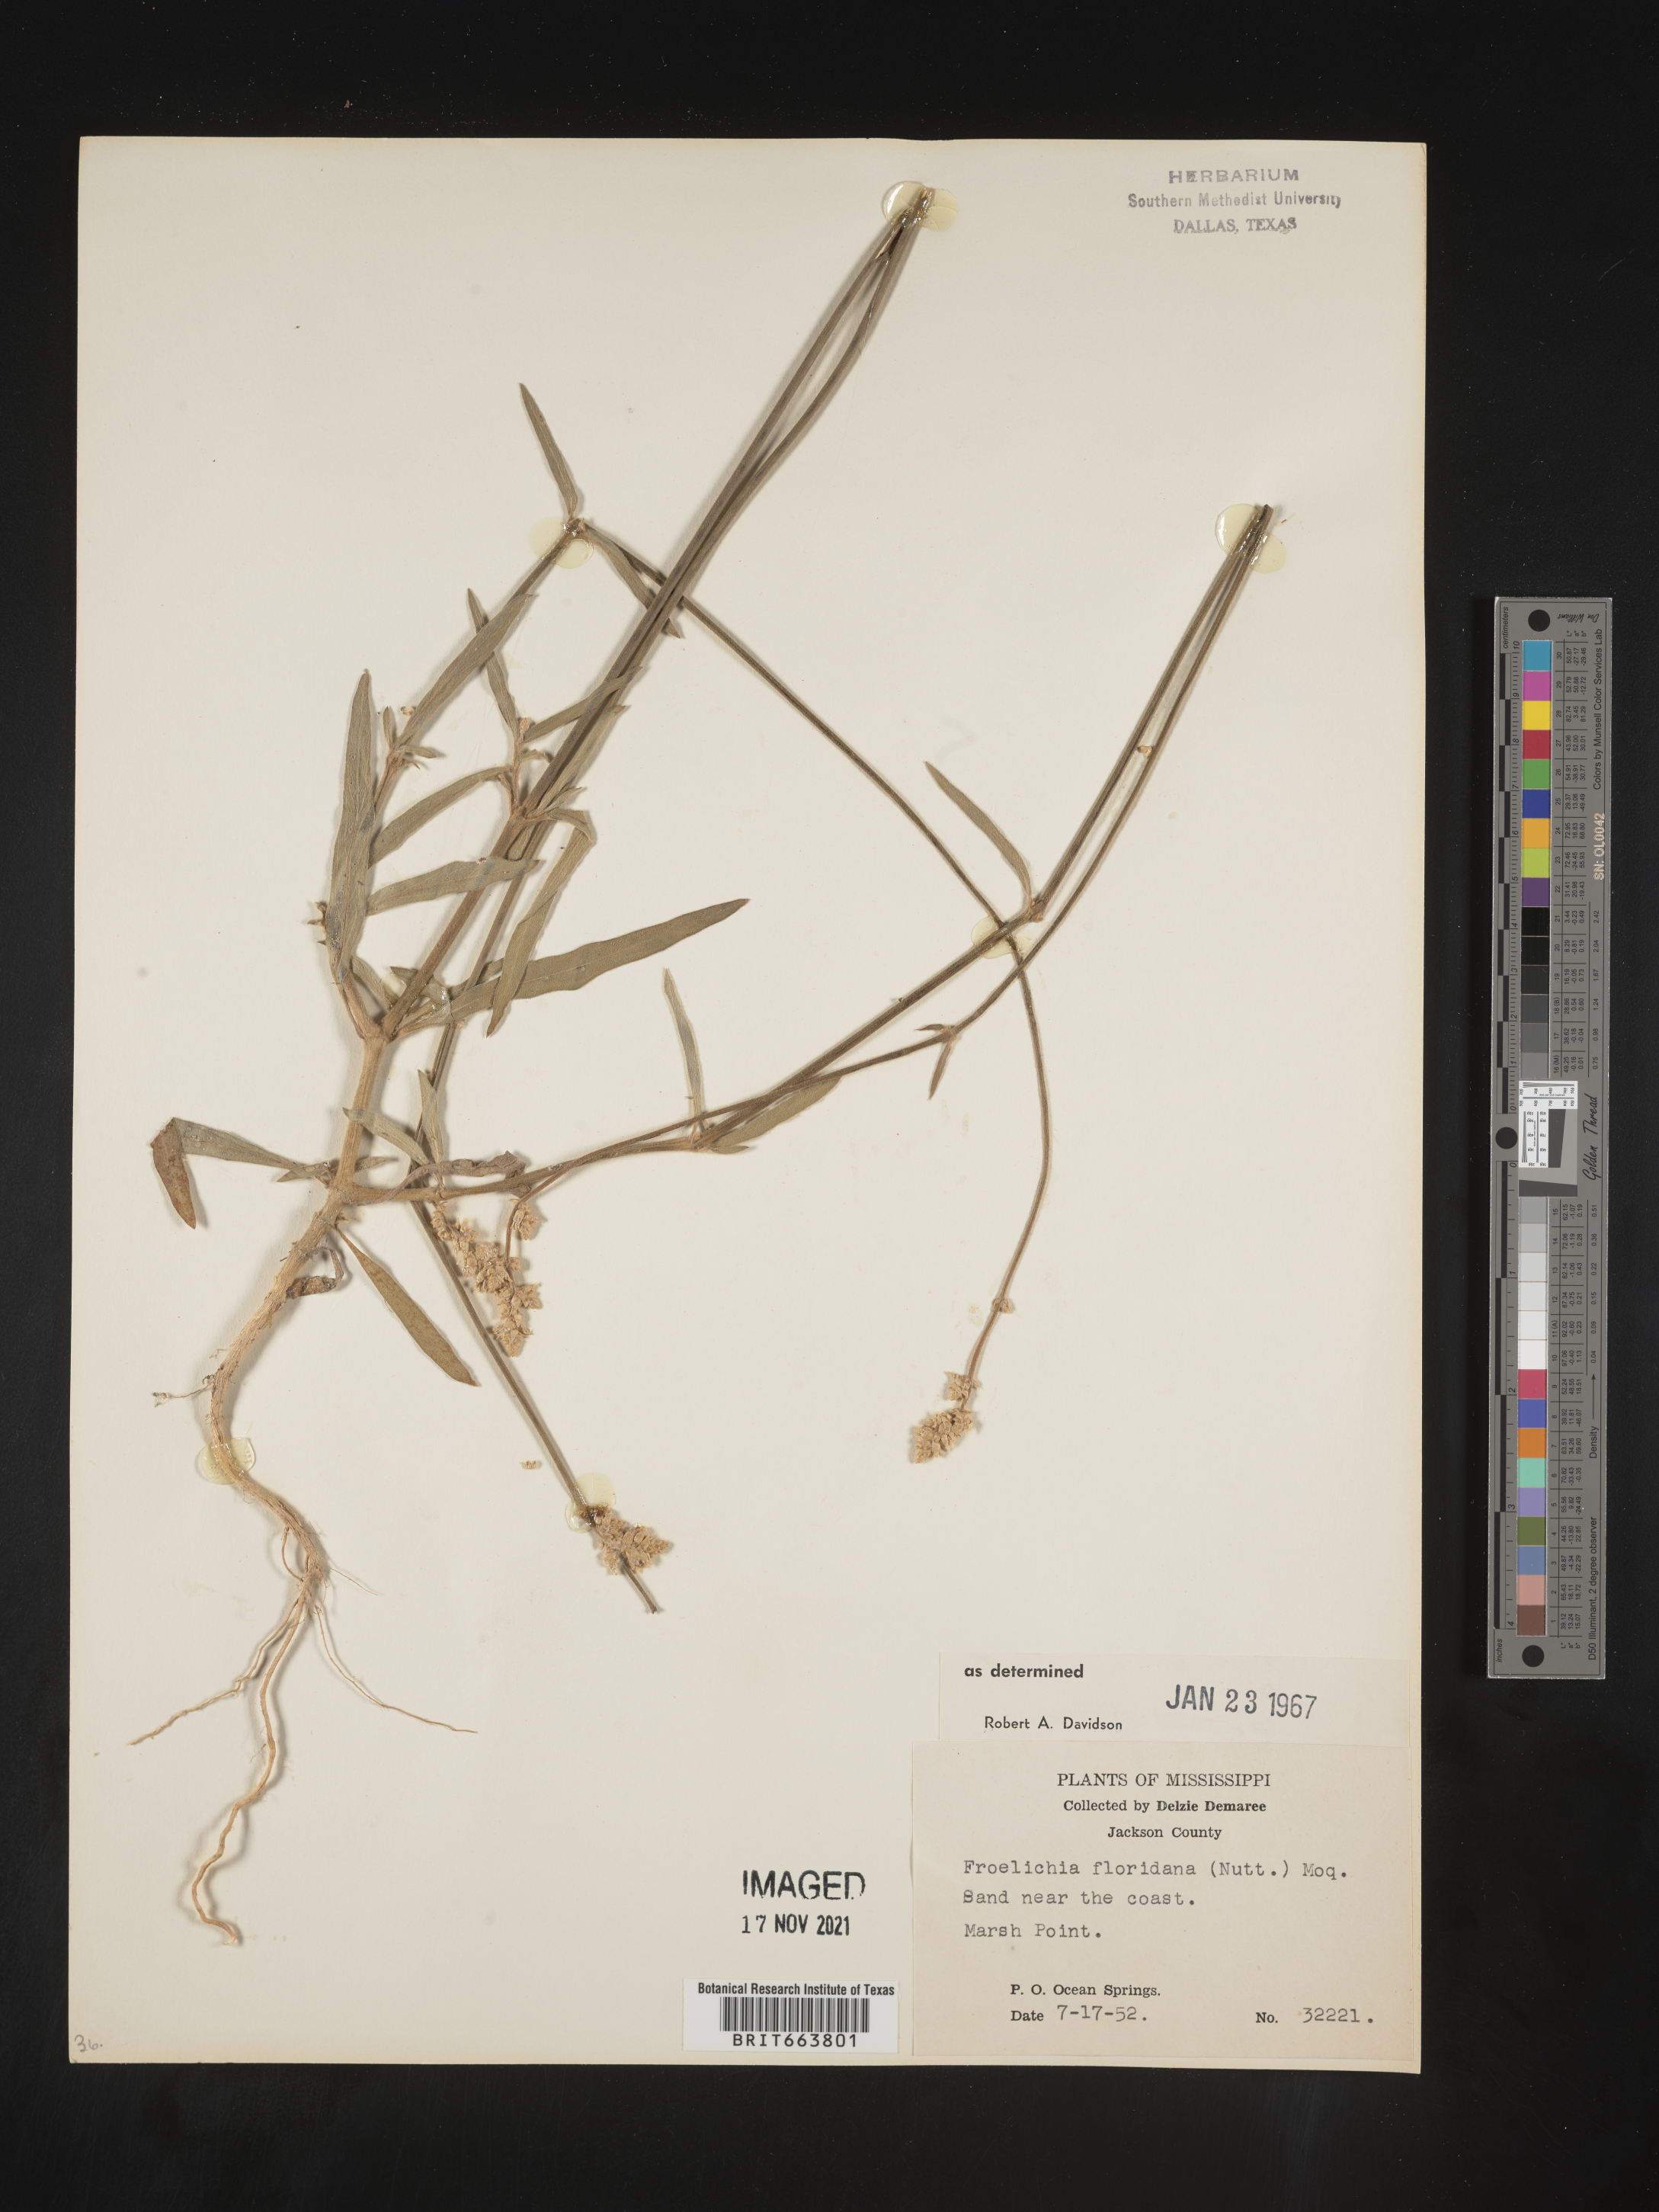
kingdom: Plantae
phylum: Tracheophyta
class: Magnoliopsida
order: Caryophyllales
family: Amaranthaceae
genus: Froelichia
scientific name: Froelichia floridana
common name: Florida snake-cotton
